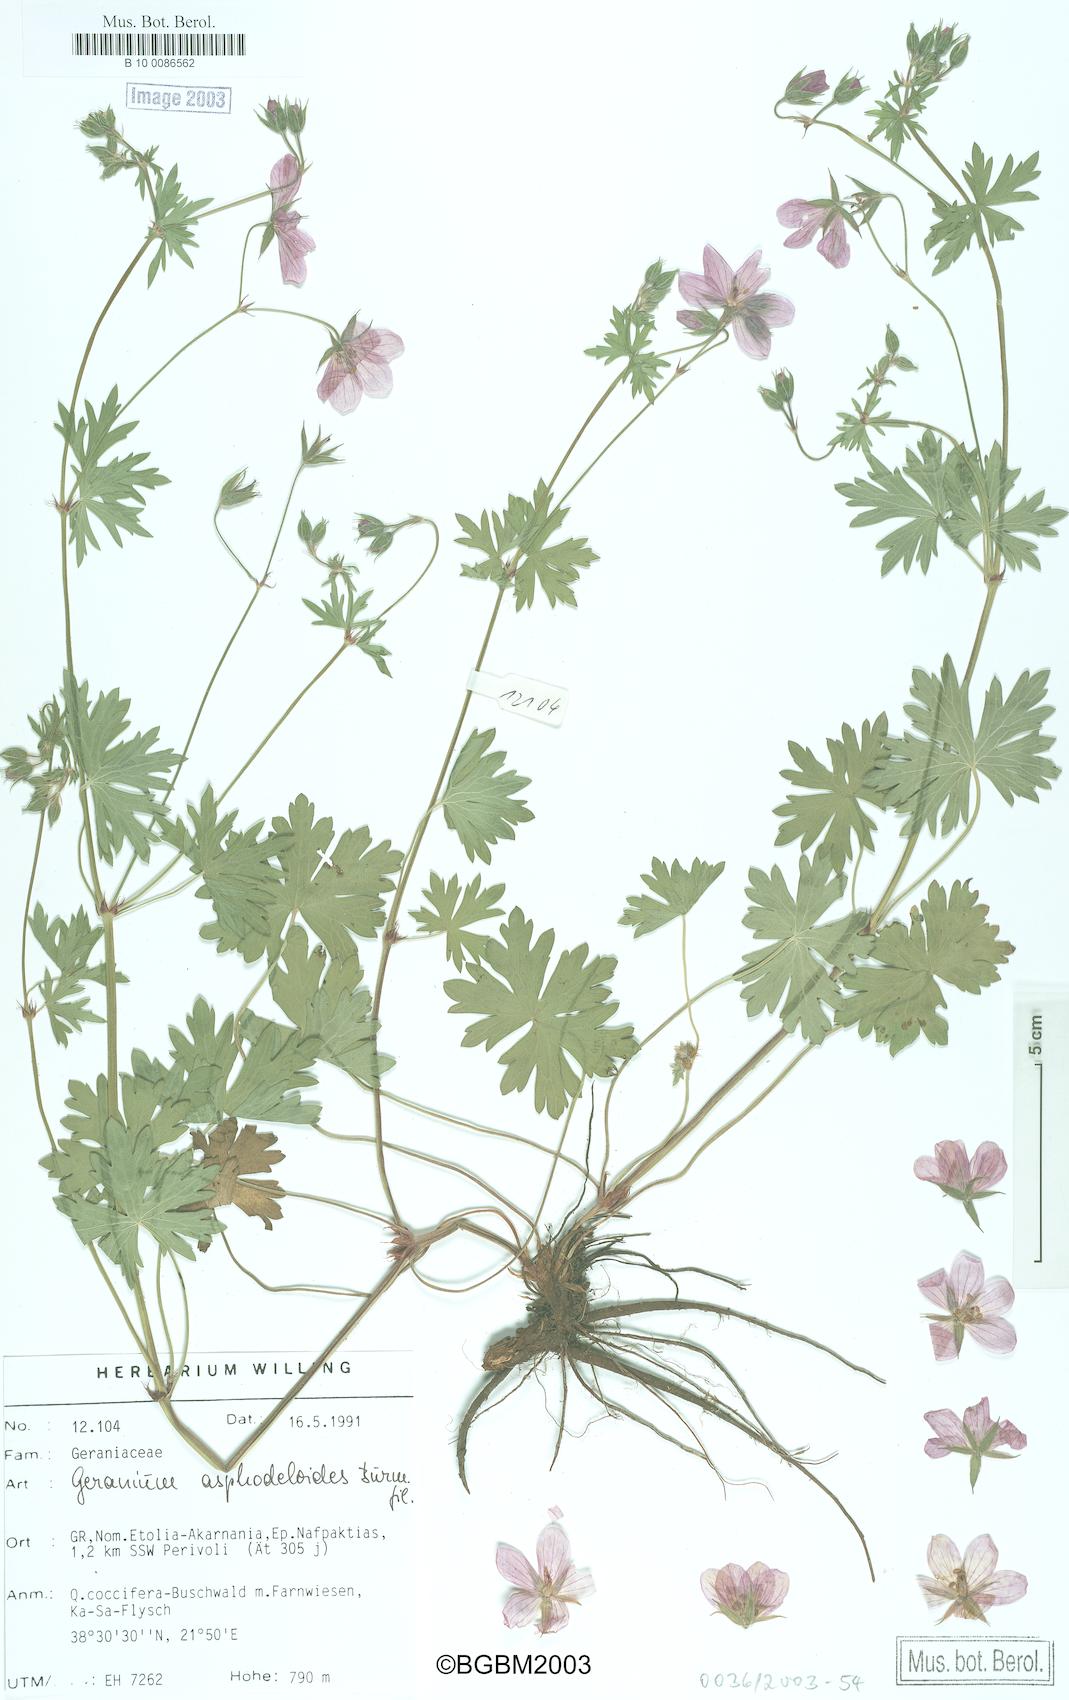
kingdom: Plantae
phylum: Tracheophyta
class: Magnoliopsida
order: Geraniales
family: Geraniaceae
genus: Geranium
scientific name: Geranium asphodeloides
